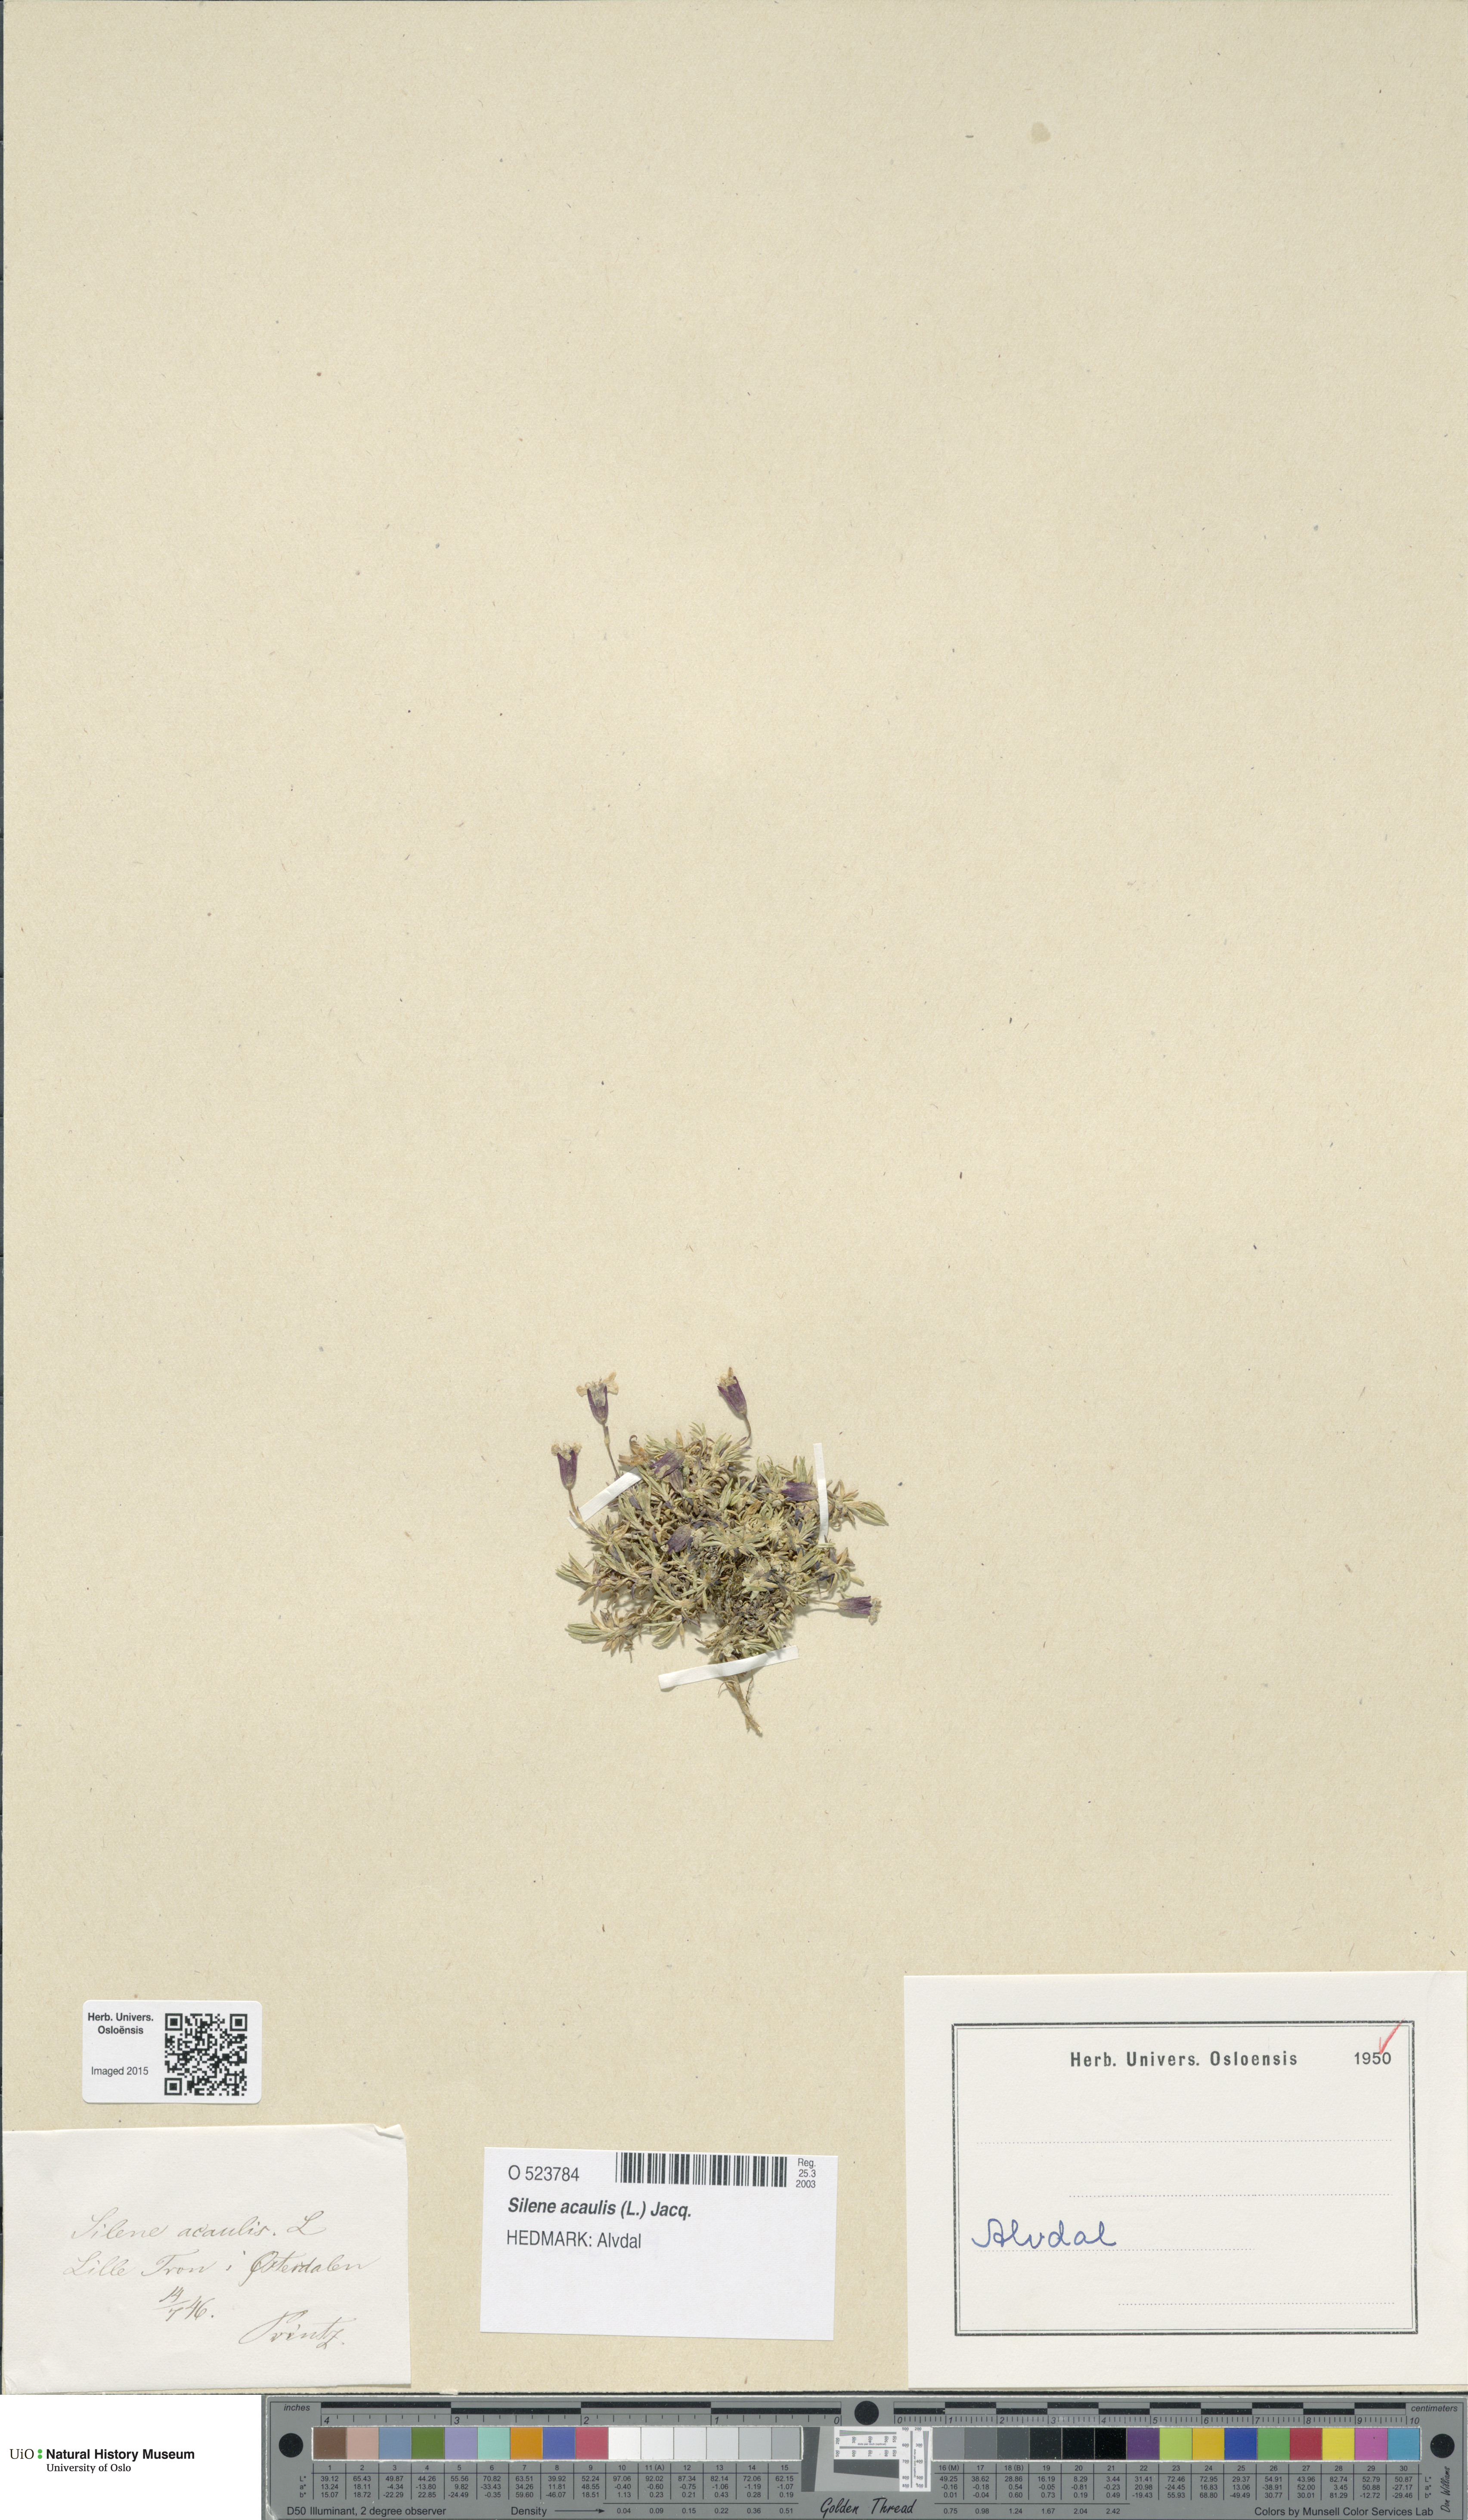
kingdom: Plantae
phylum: Tracheophyta
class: Magnoliopsida
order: Caryophyllales
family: Caryophyllaceae
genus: Silene
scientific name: Silene acaulis
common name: Moss campion
